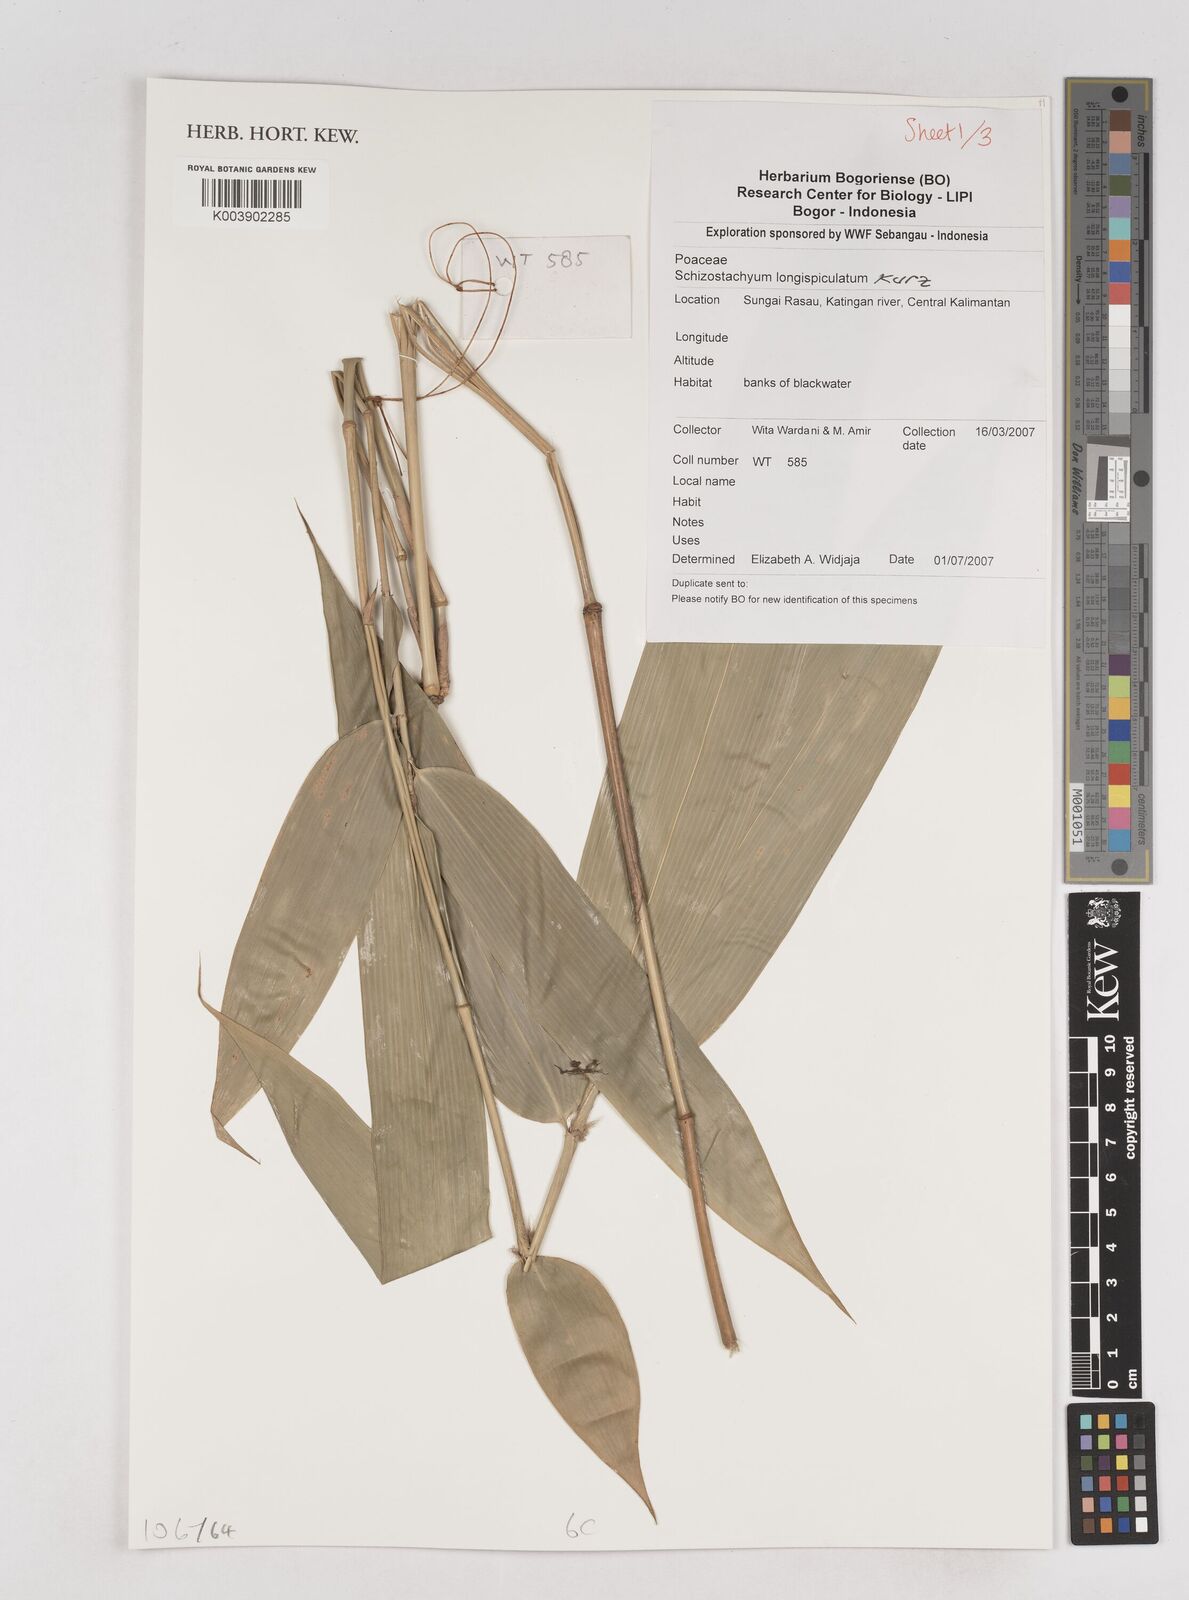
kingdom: Plantae
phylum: Tracheophyta
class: Liliopsida
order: Poales
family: Poaceae
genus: Schizostachyum
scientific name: Schizostachyum blumei
